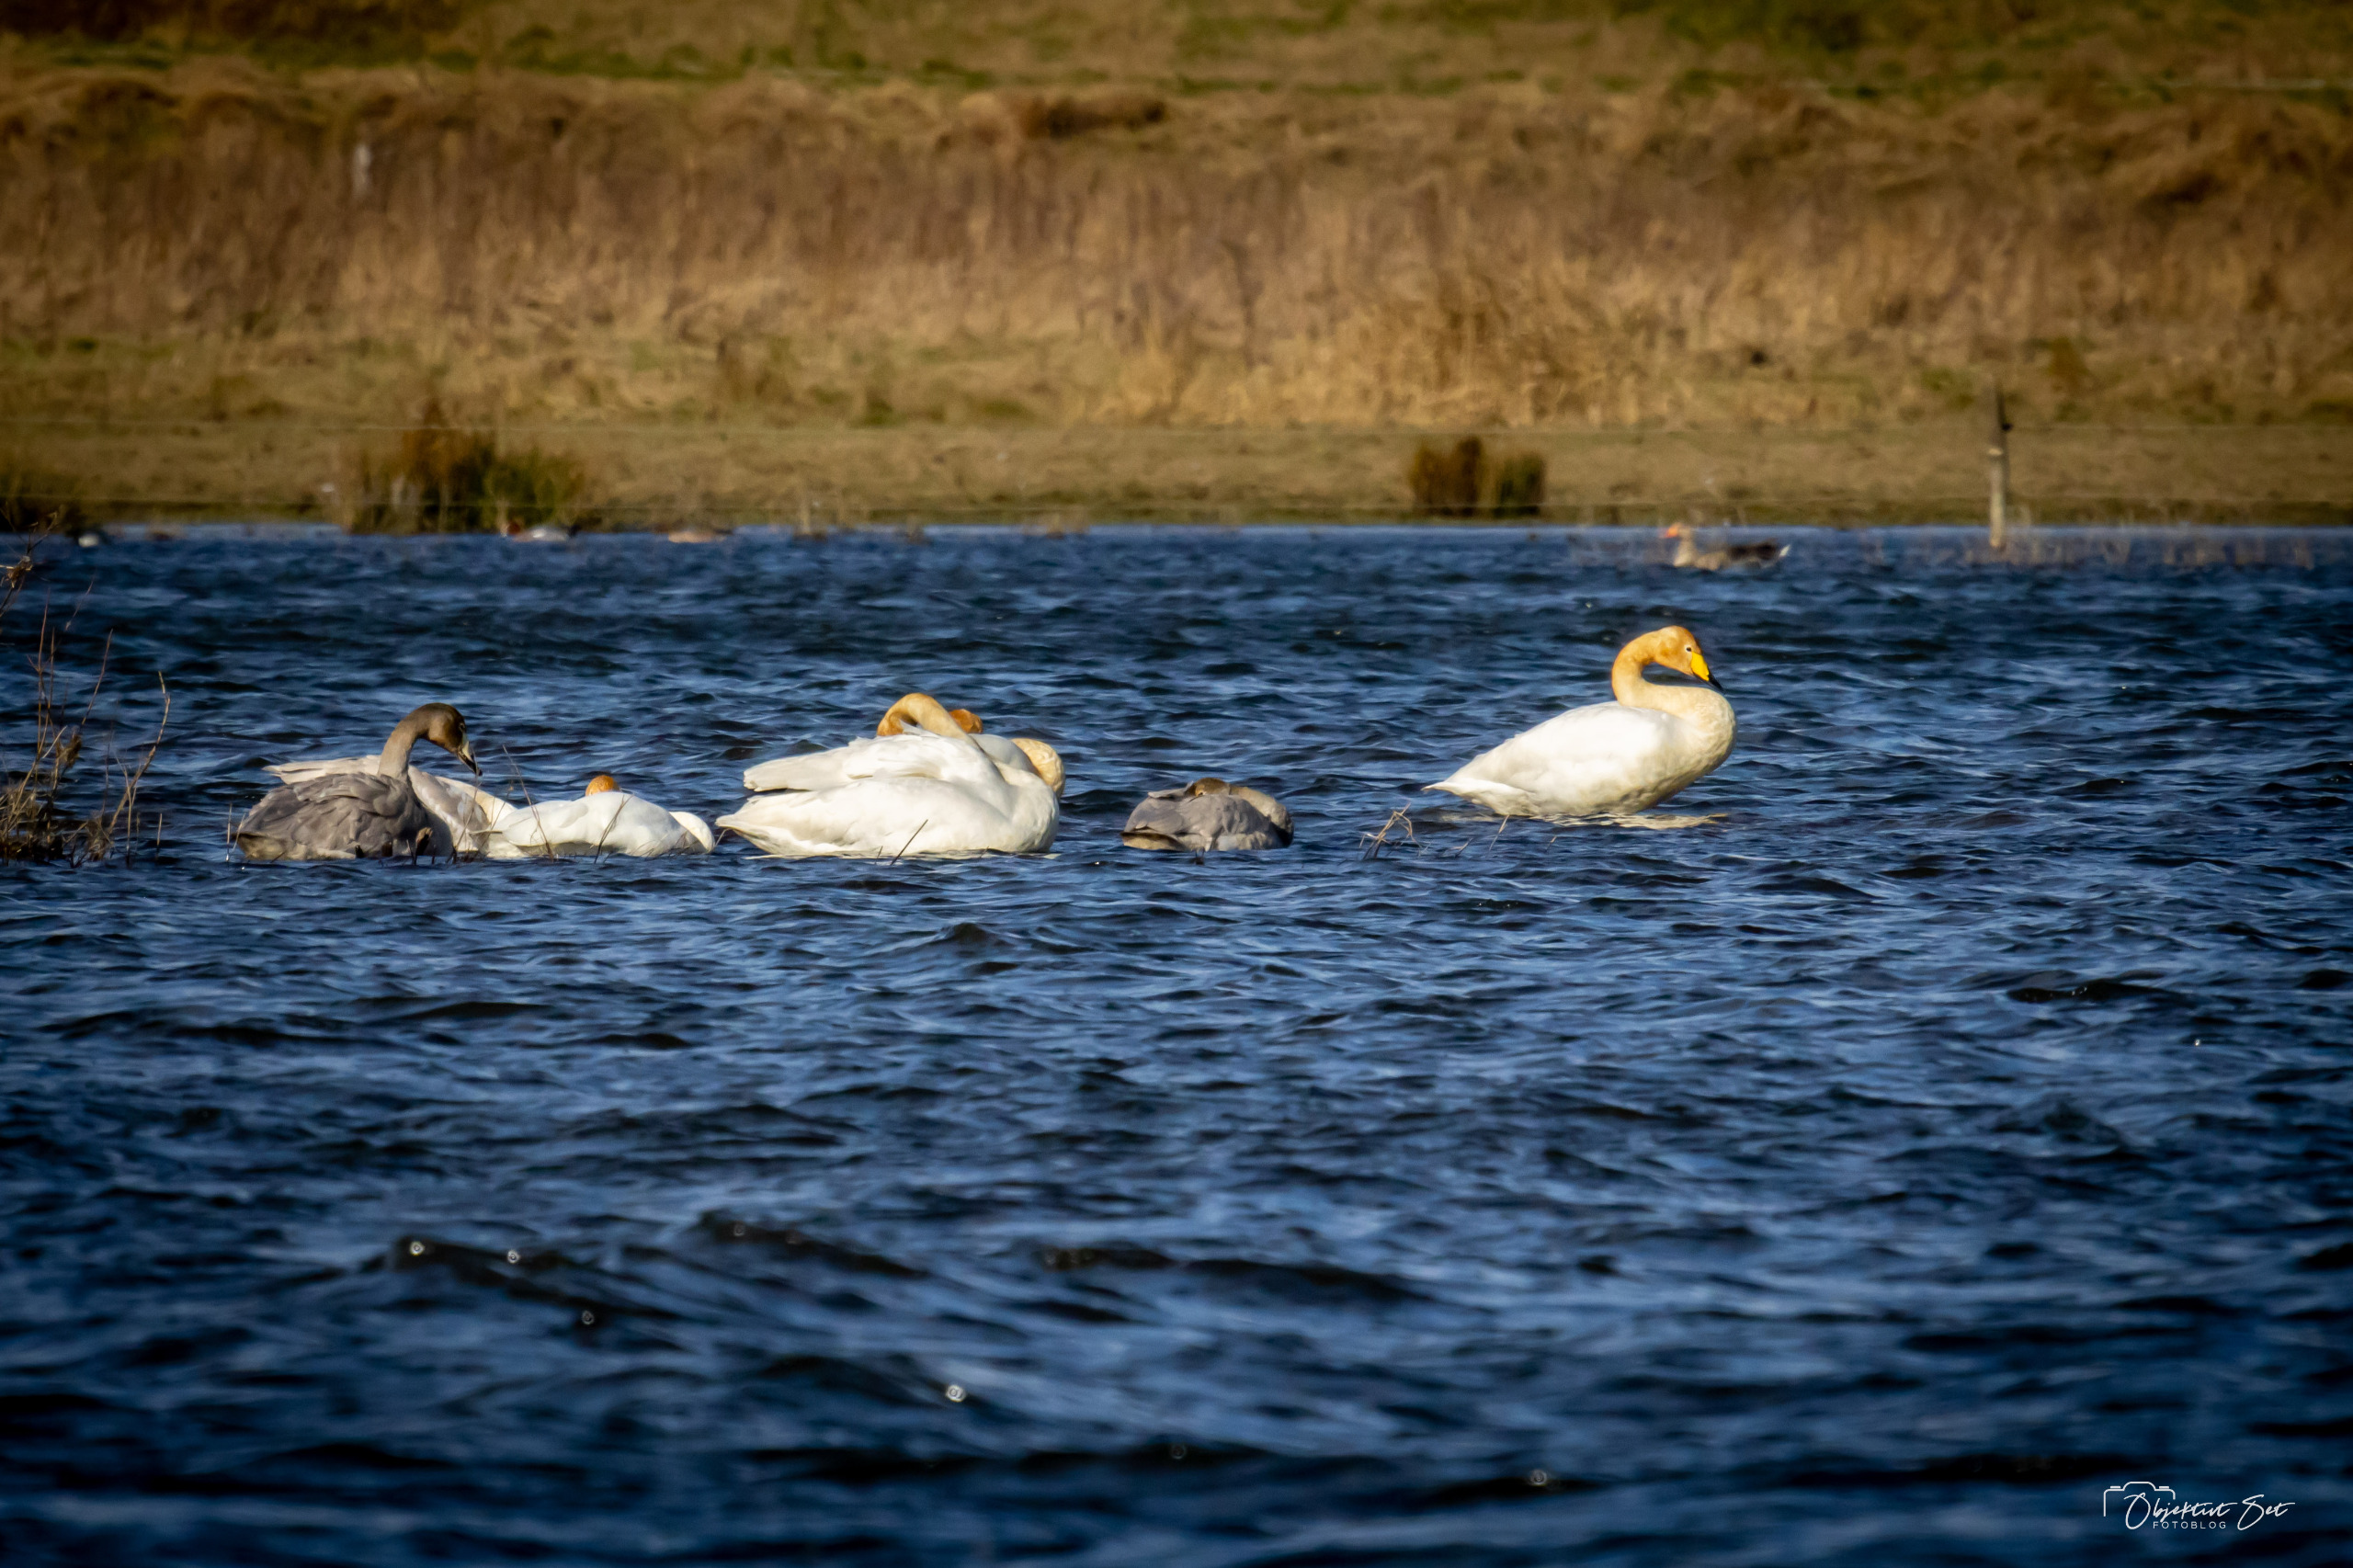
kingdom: Animalia
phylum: Chordata
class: Aves
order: Anseriformes
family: Anatidae
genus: Cygnus
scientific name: Cygnus cygnus
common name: Sangsvane
